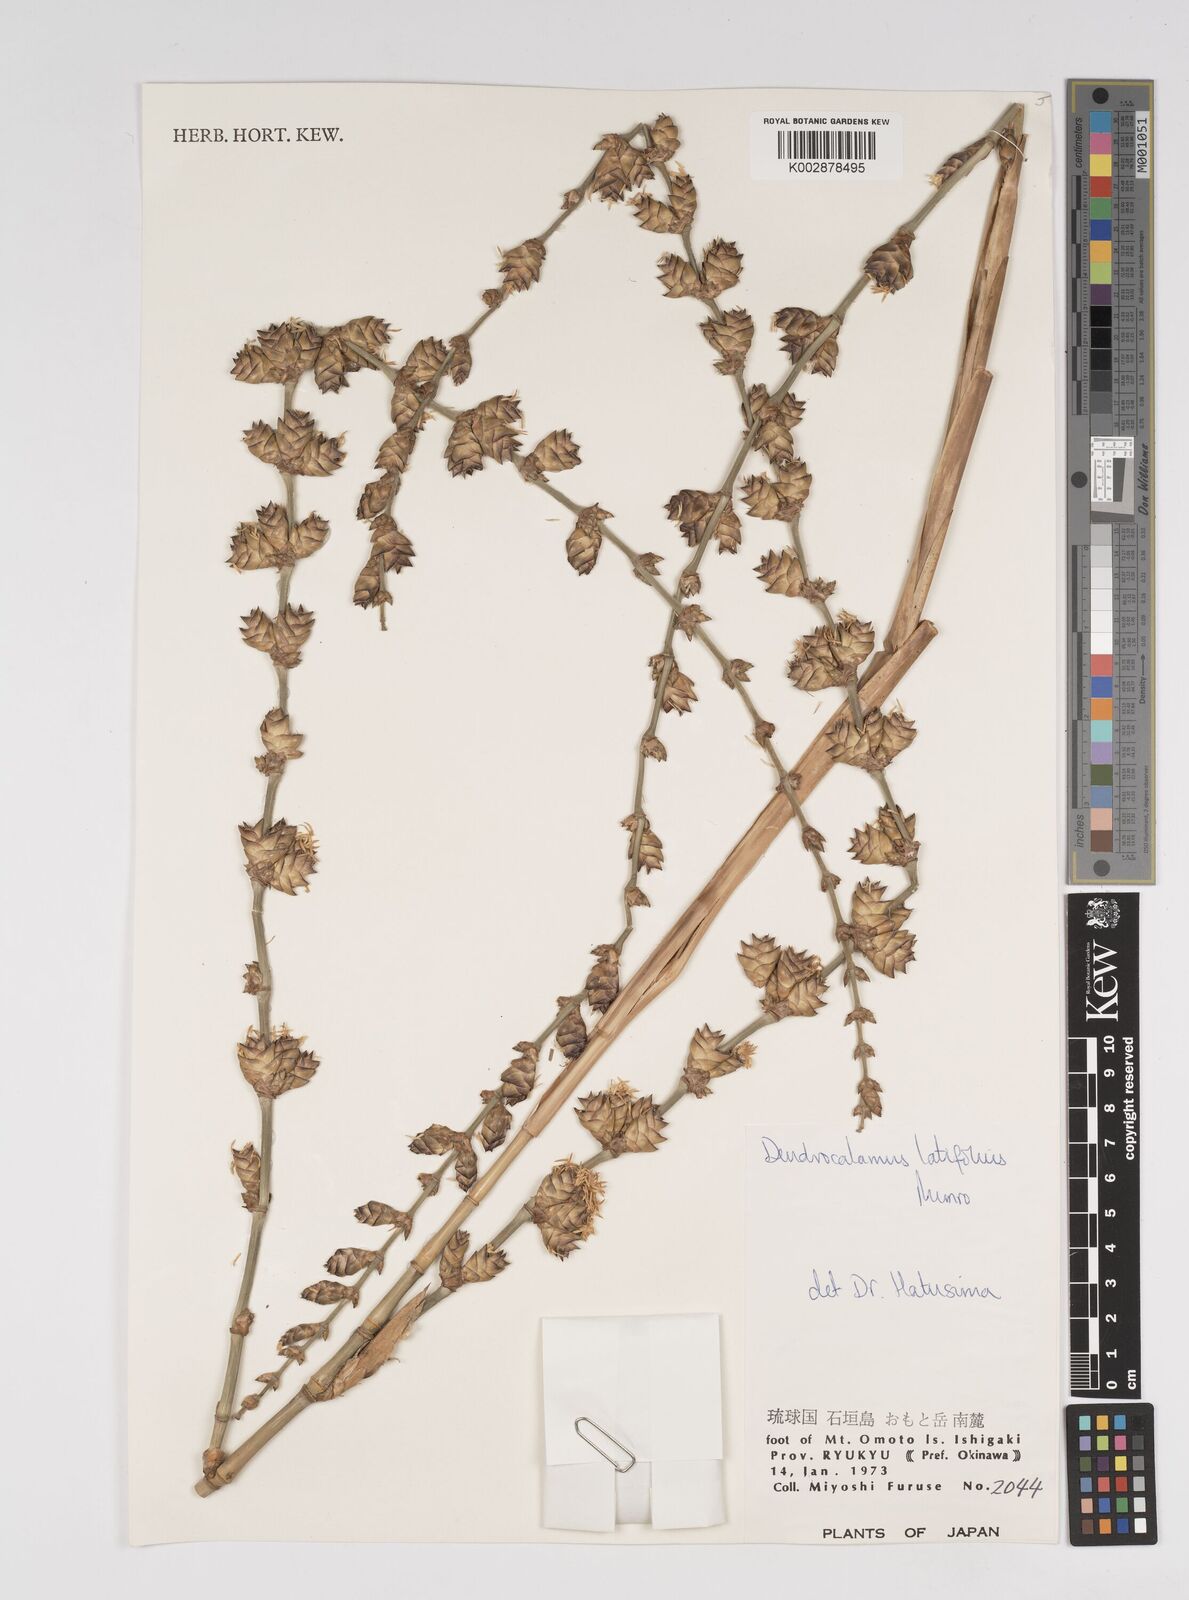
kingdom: Plantae
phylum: Tracheophyta
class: Liliopsida
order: Poales
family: Poaceae
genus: Dendrocalamus
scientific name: Dendrocalamus latiflorus
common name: Giant bamboo
